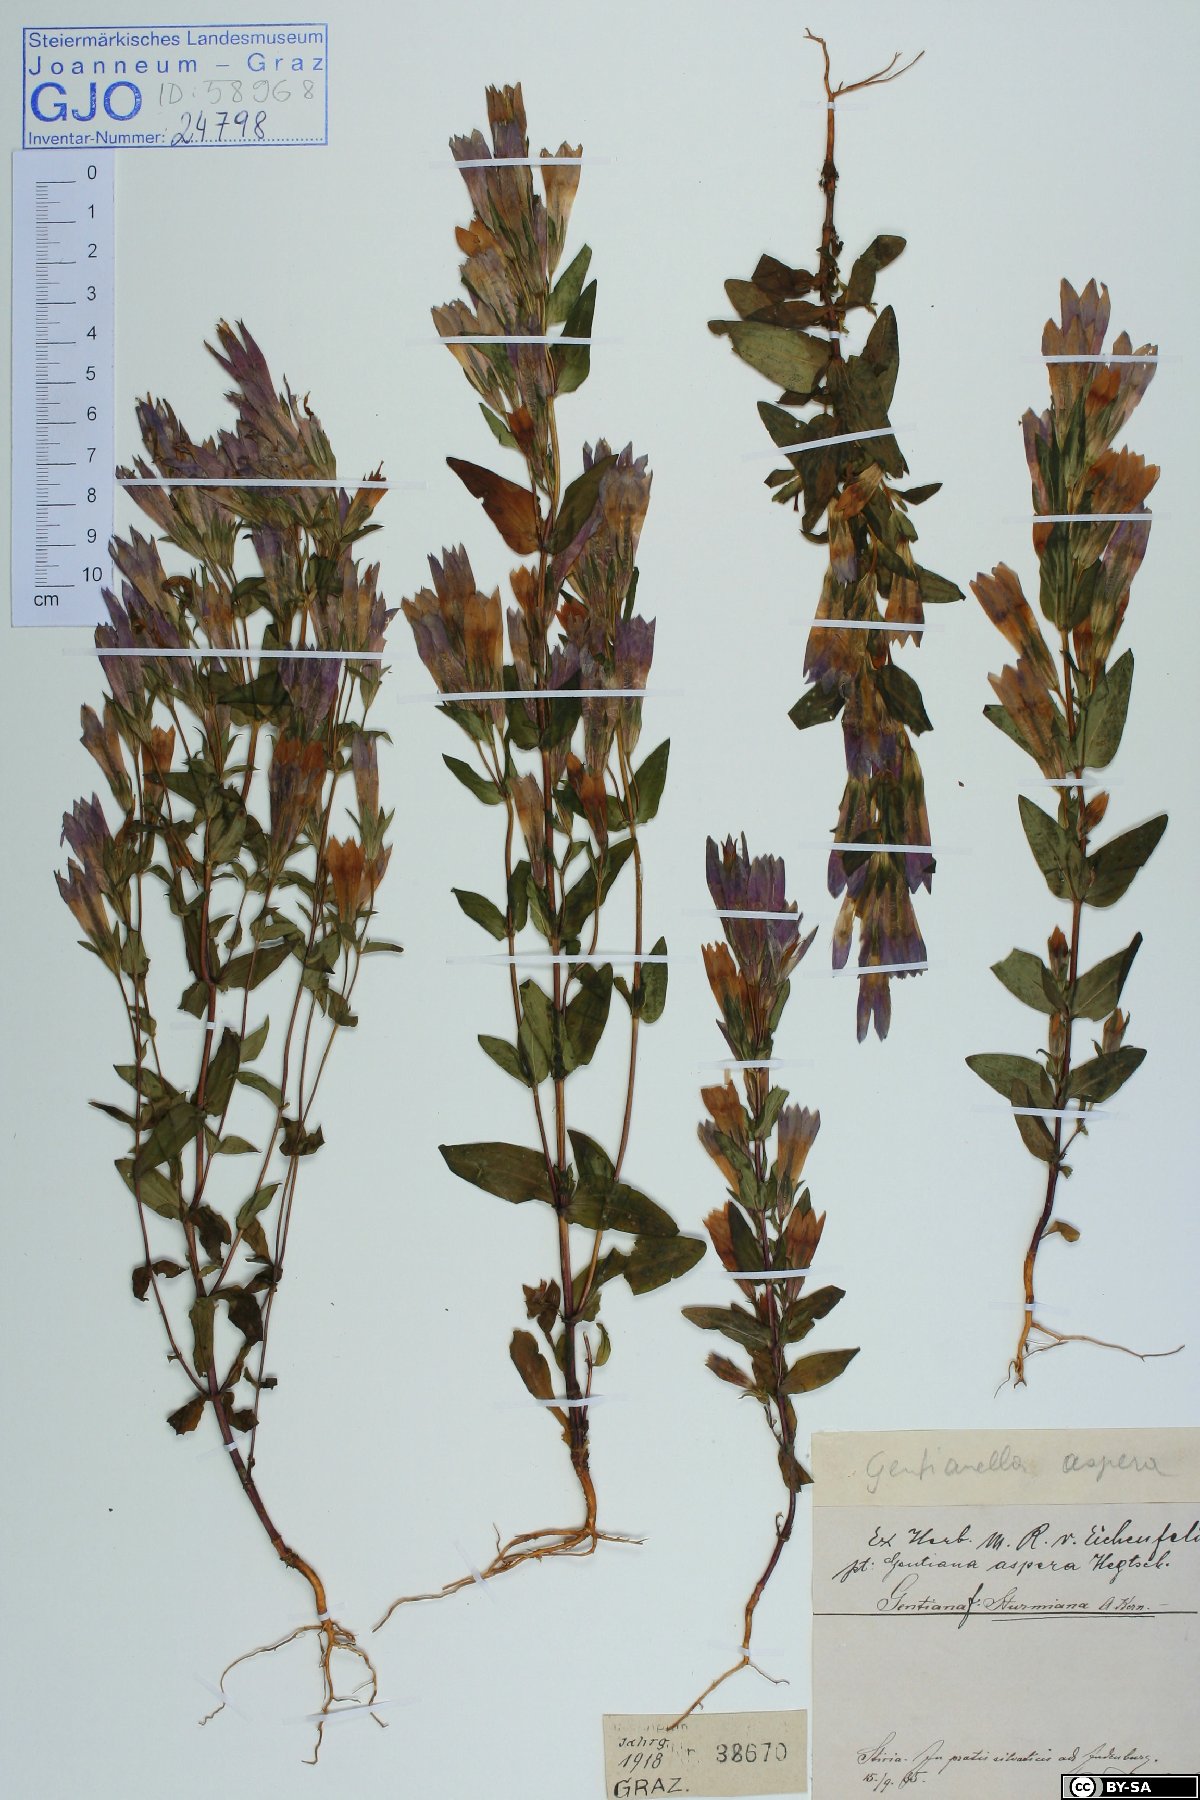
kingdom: Plantae
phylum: Tracheophyta
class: Magnoliopsida
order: Gentianales
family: Gentianaceae
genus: Gentianella
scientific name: Gentianella obtusifolia
